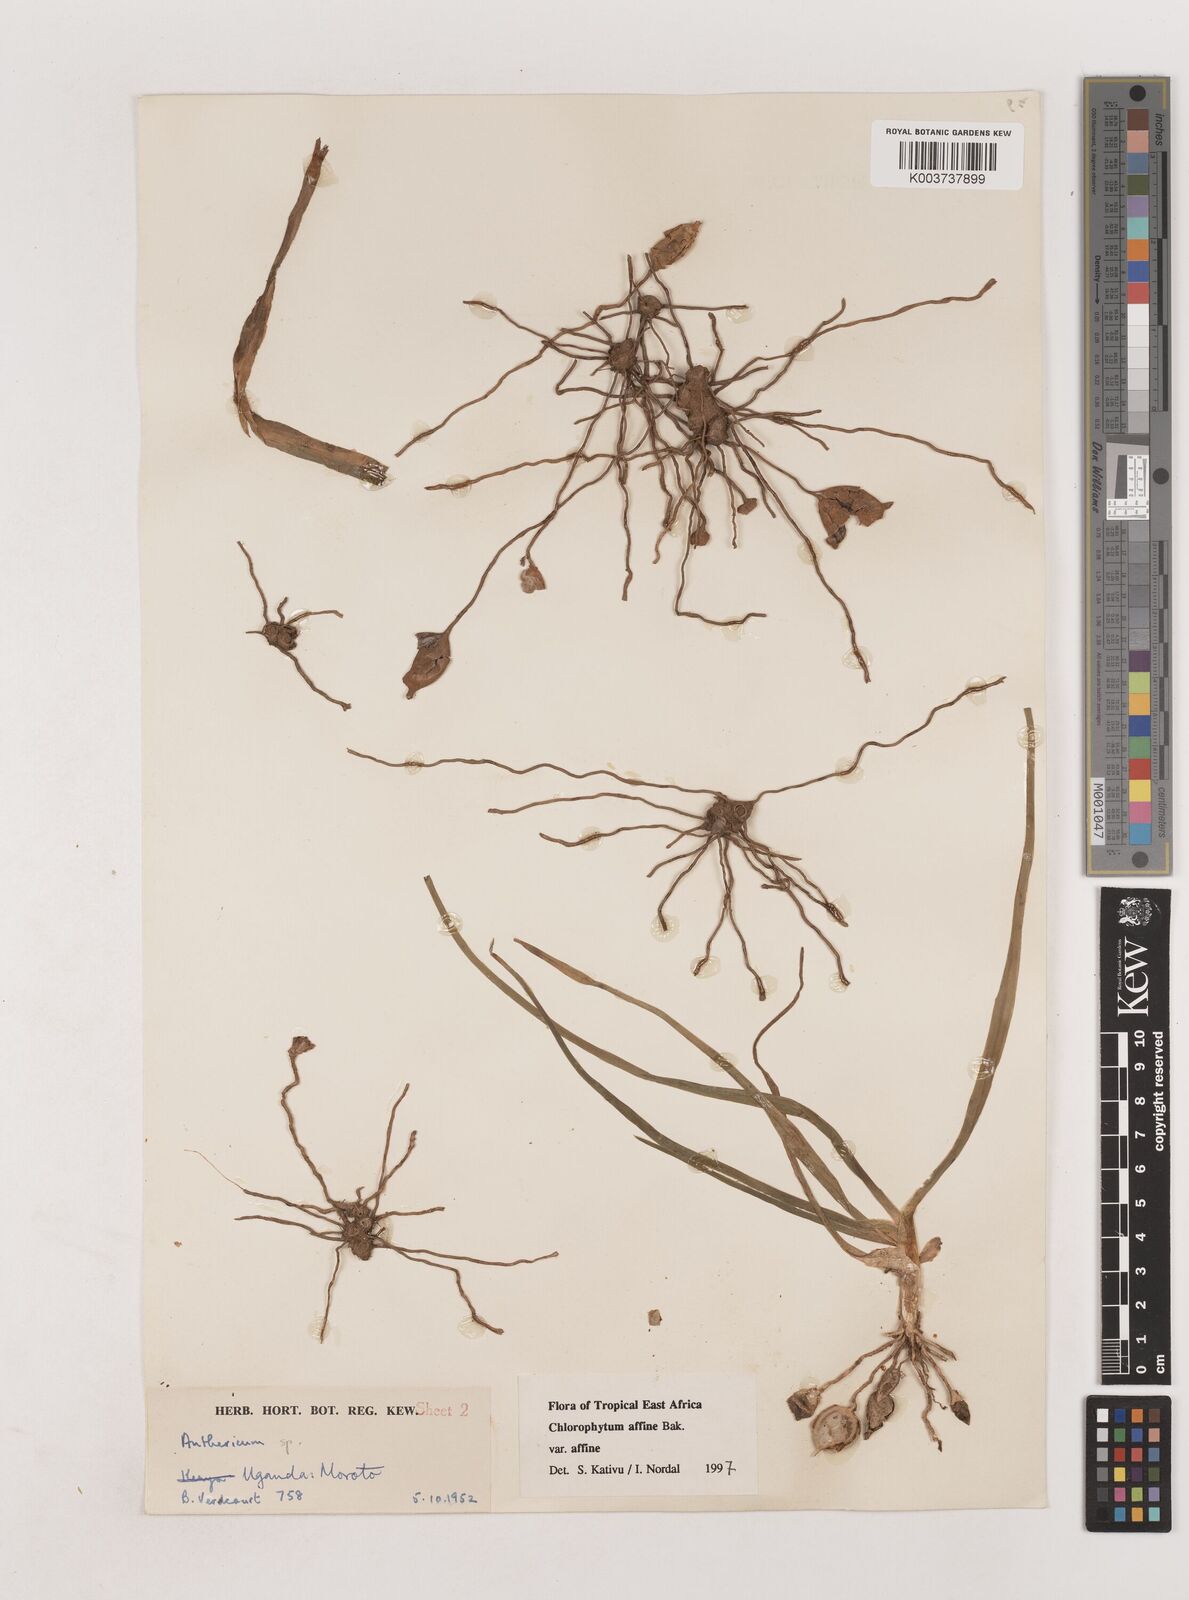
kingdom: Plantae
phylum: Tracheophyta
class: Liliopsida
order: Asparagales
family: Asparagaceae
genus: Chlorophytum
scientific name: Chlorophytum affine
